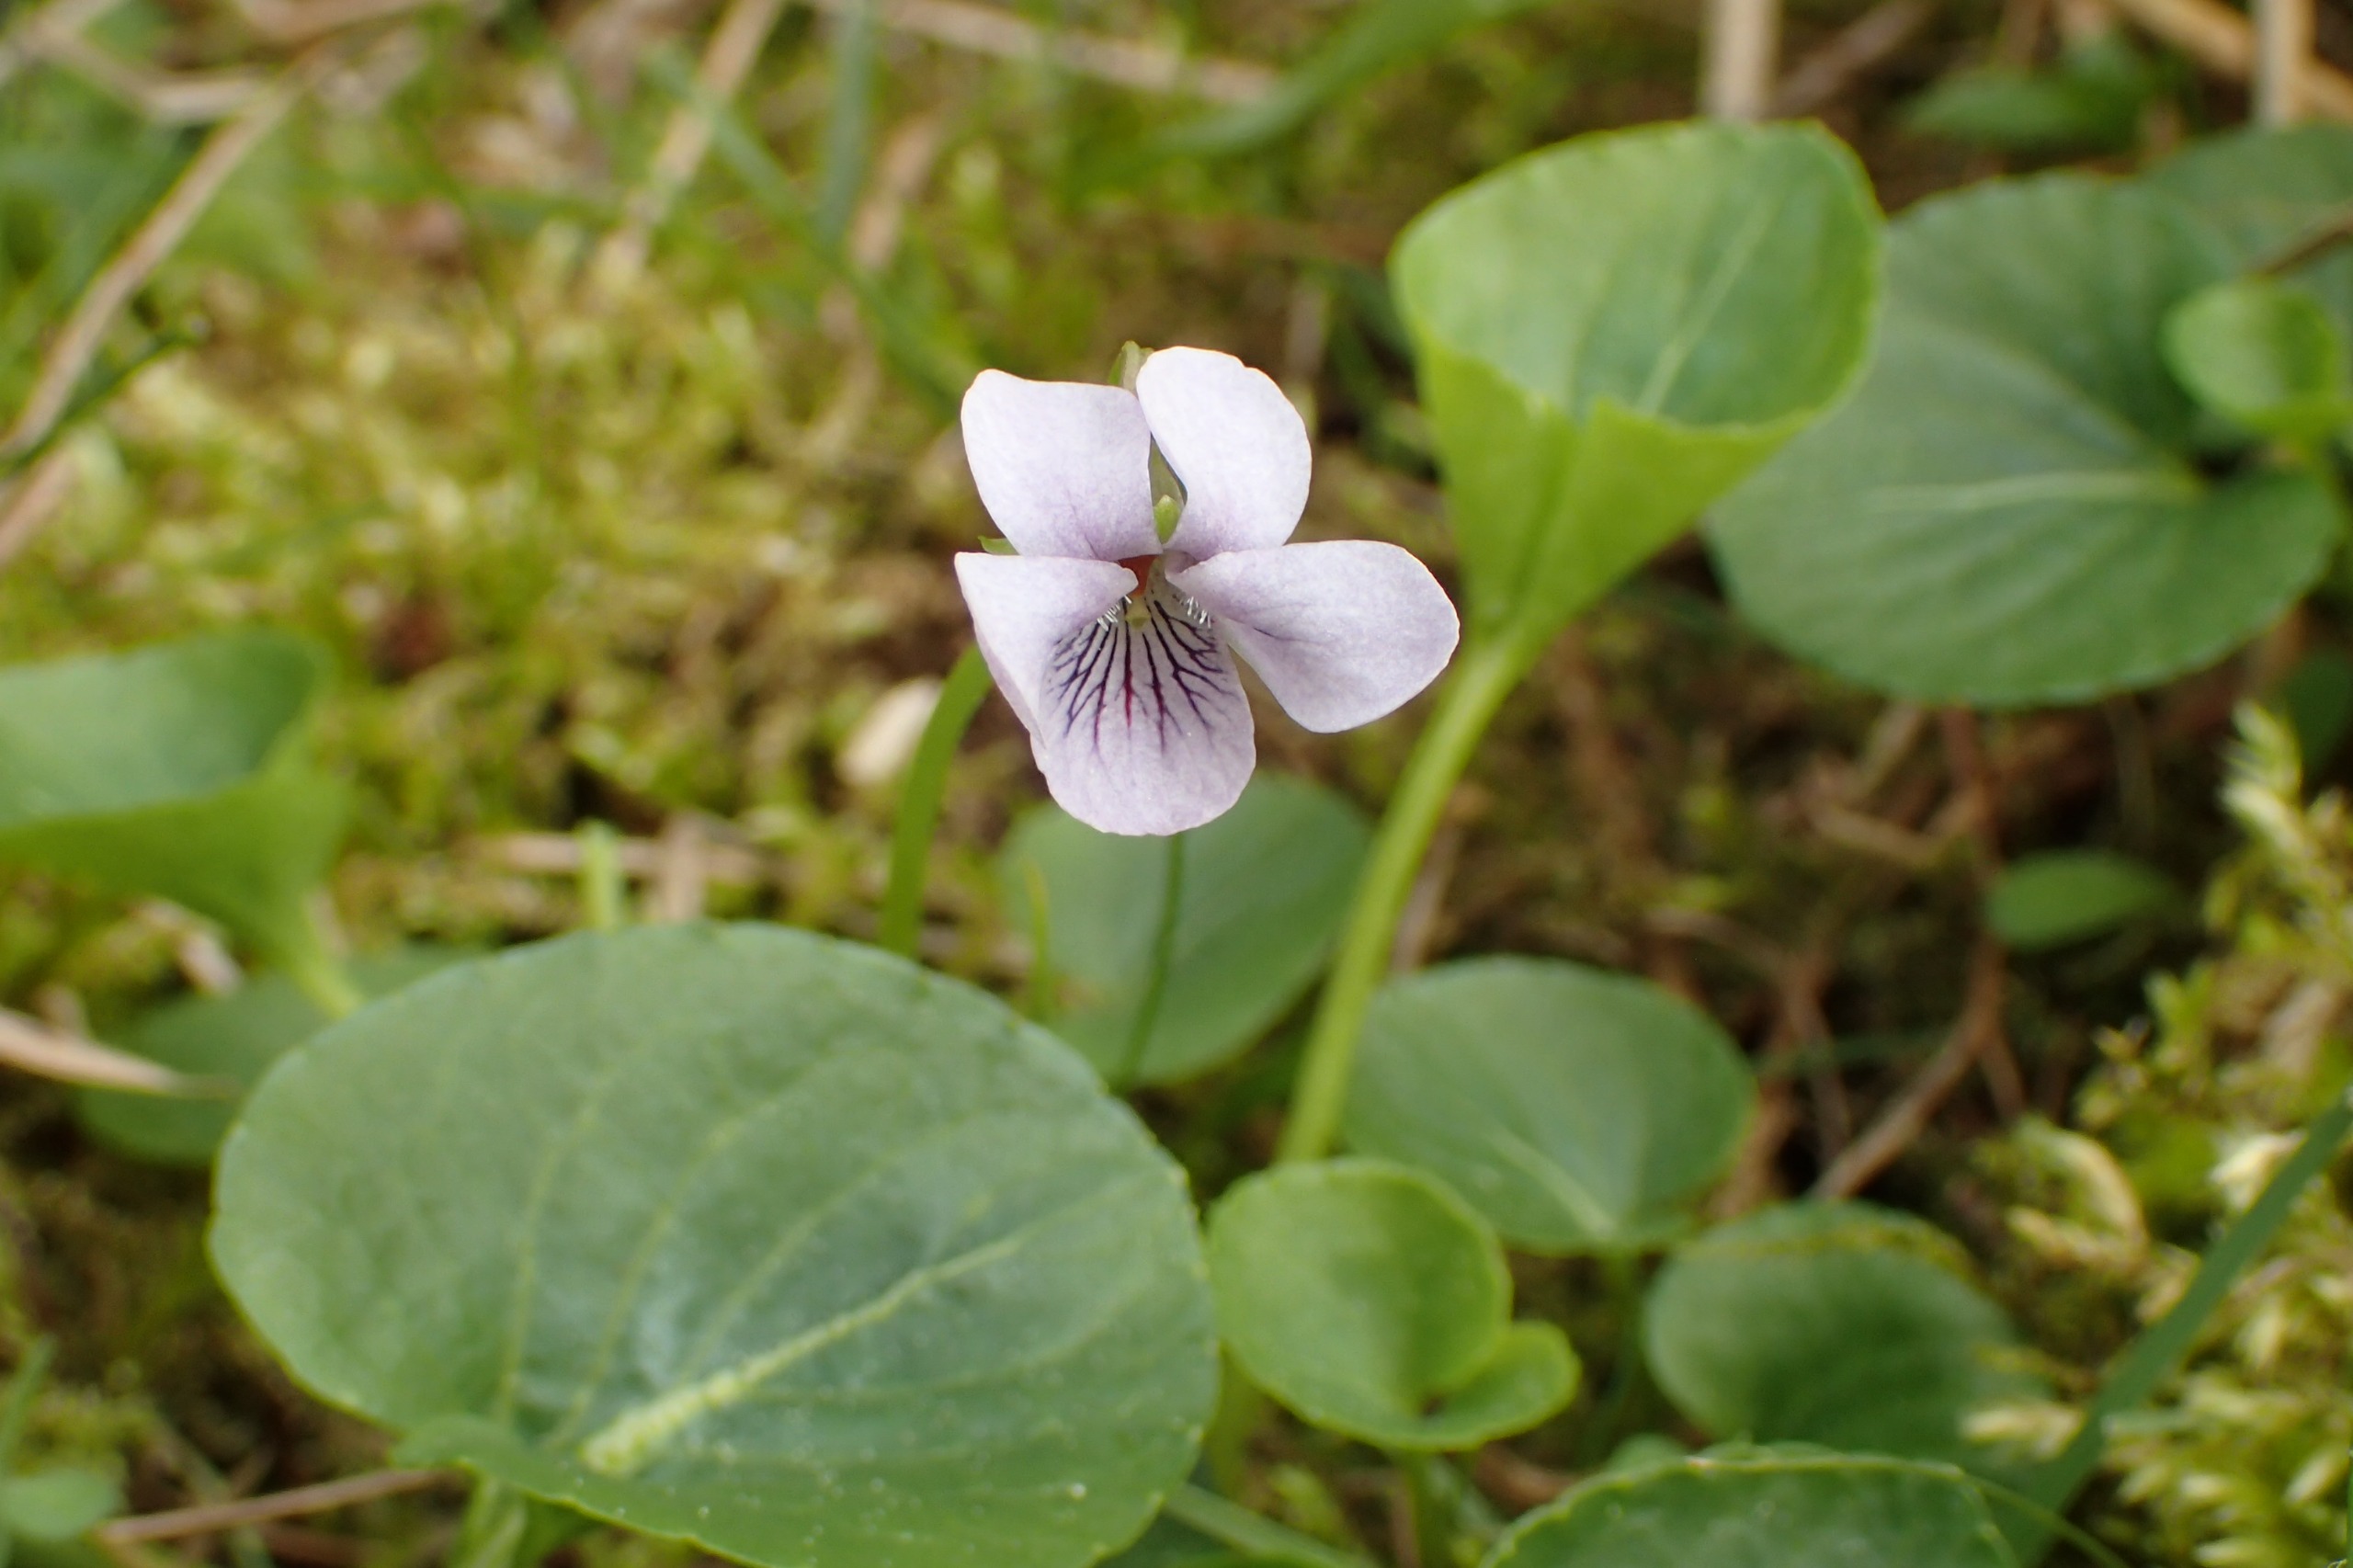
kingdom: Plantae
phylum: Tracheophyta
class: Magnoliopsida
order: Malpighiales
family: Violaceae
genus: Viola
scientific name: Viola palustris
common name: Eng-viol
